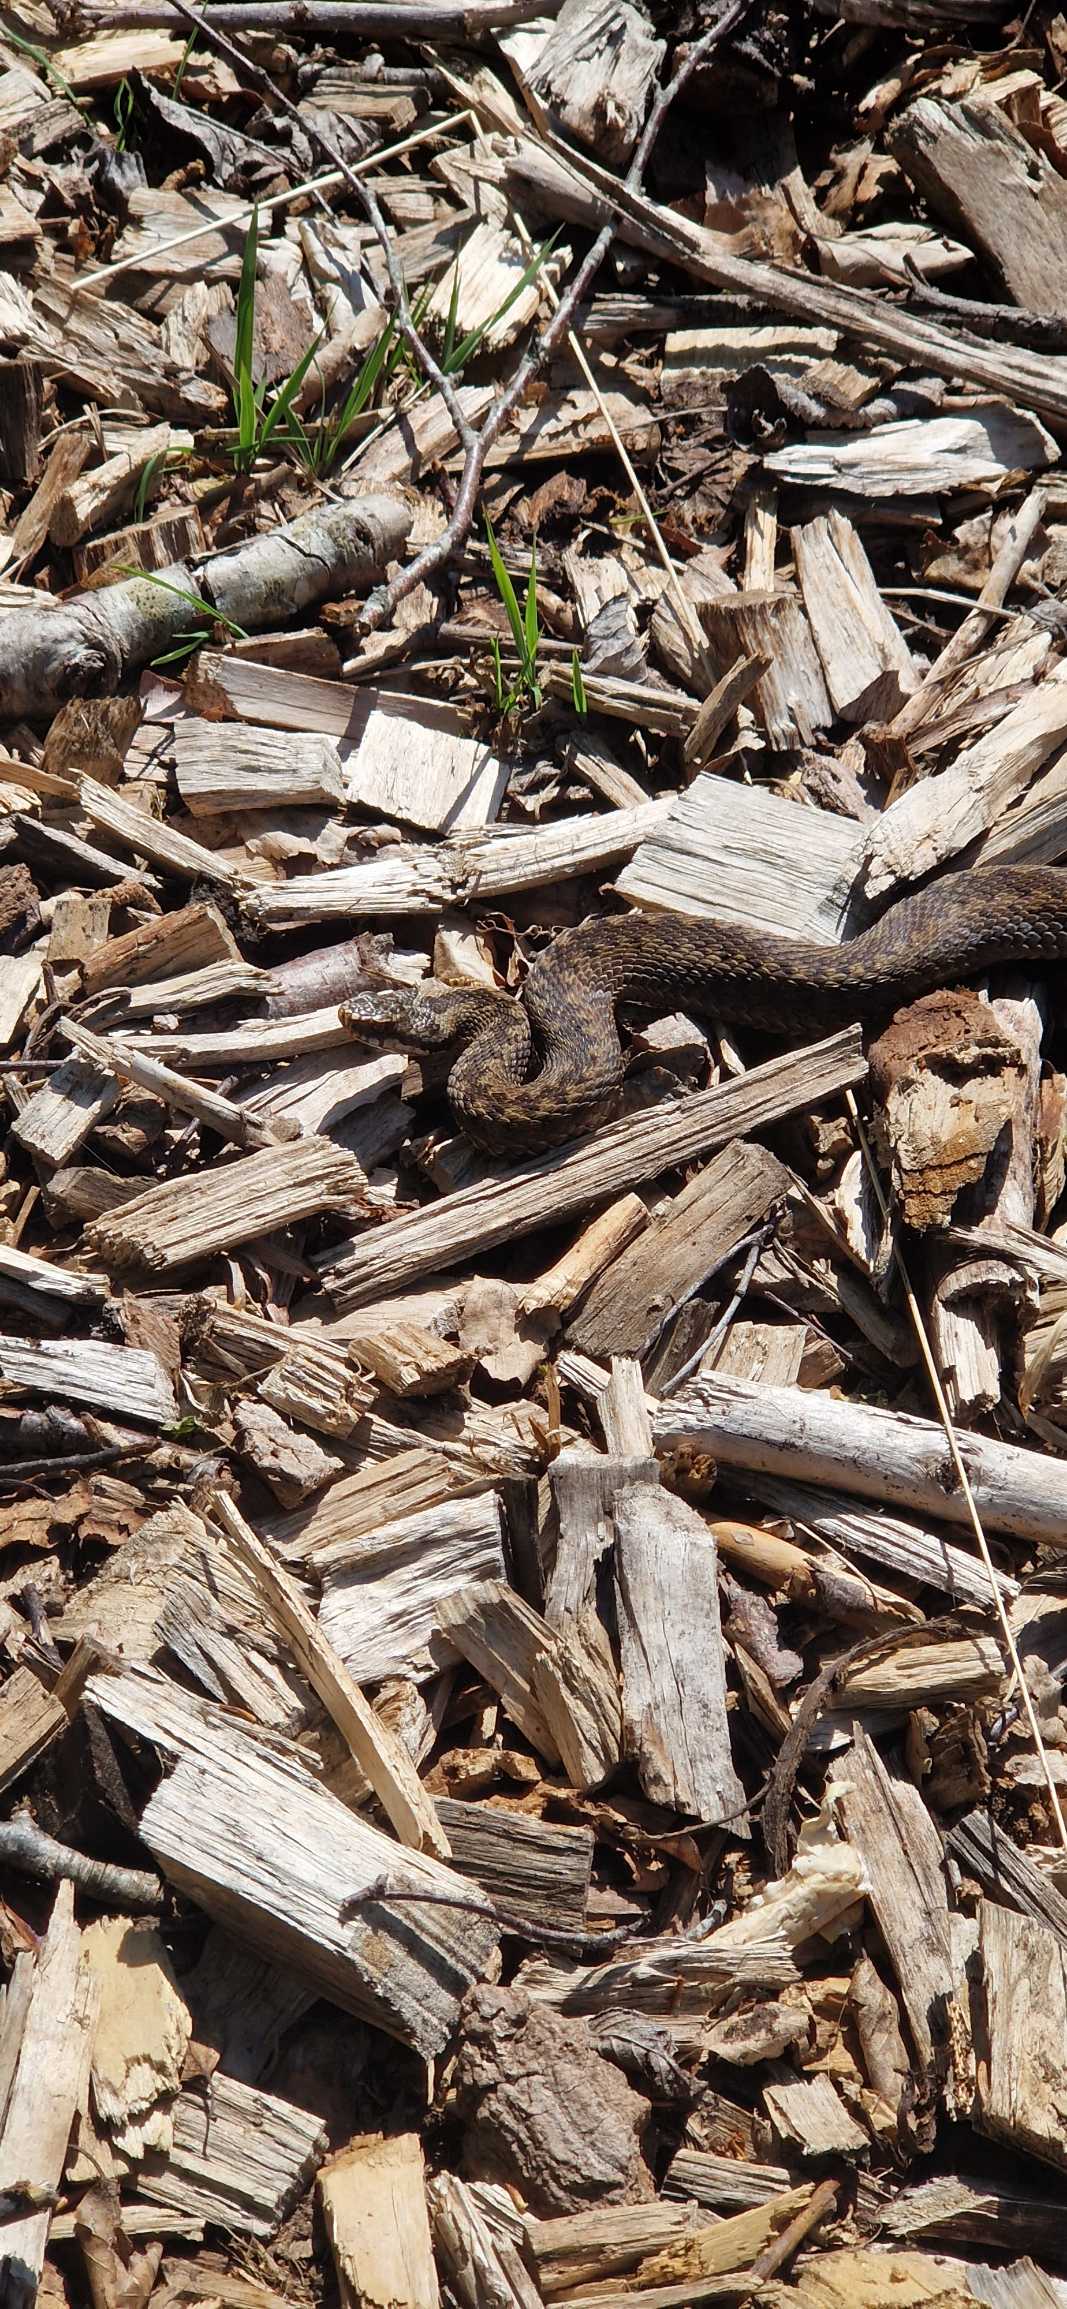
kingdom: Animalia
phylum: Chordata
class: Squamata
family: Viperidae
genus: Vipera
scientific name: Vipera berus
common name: Hugorm
